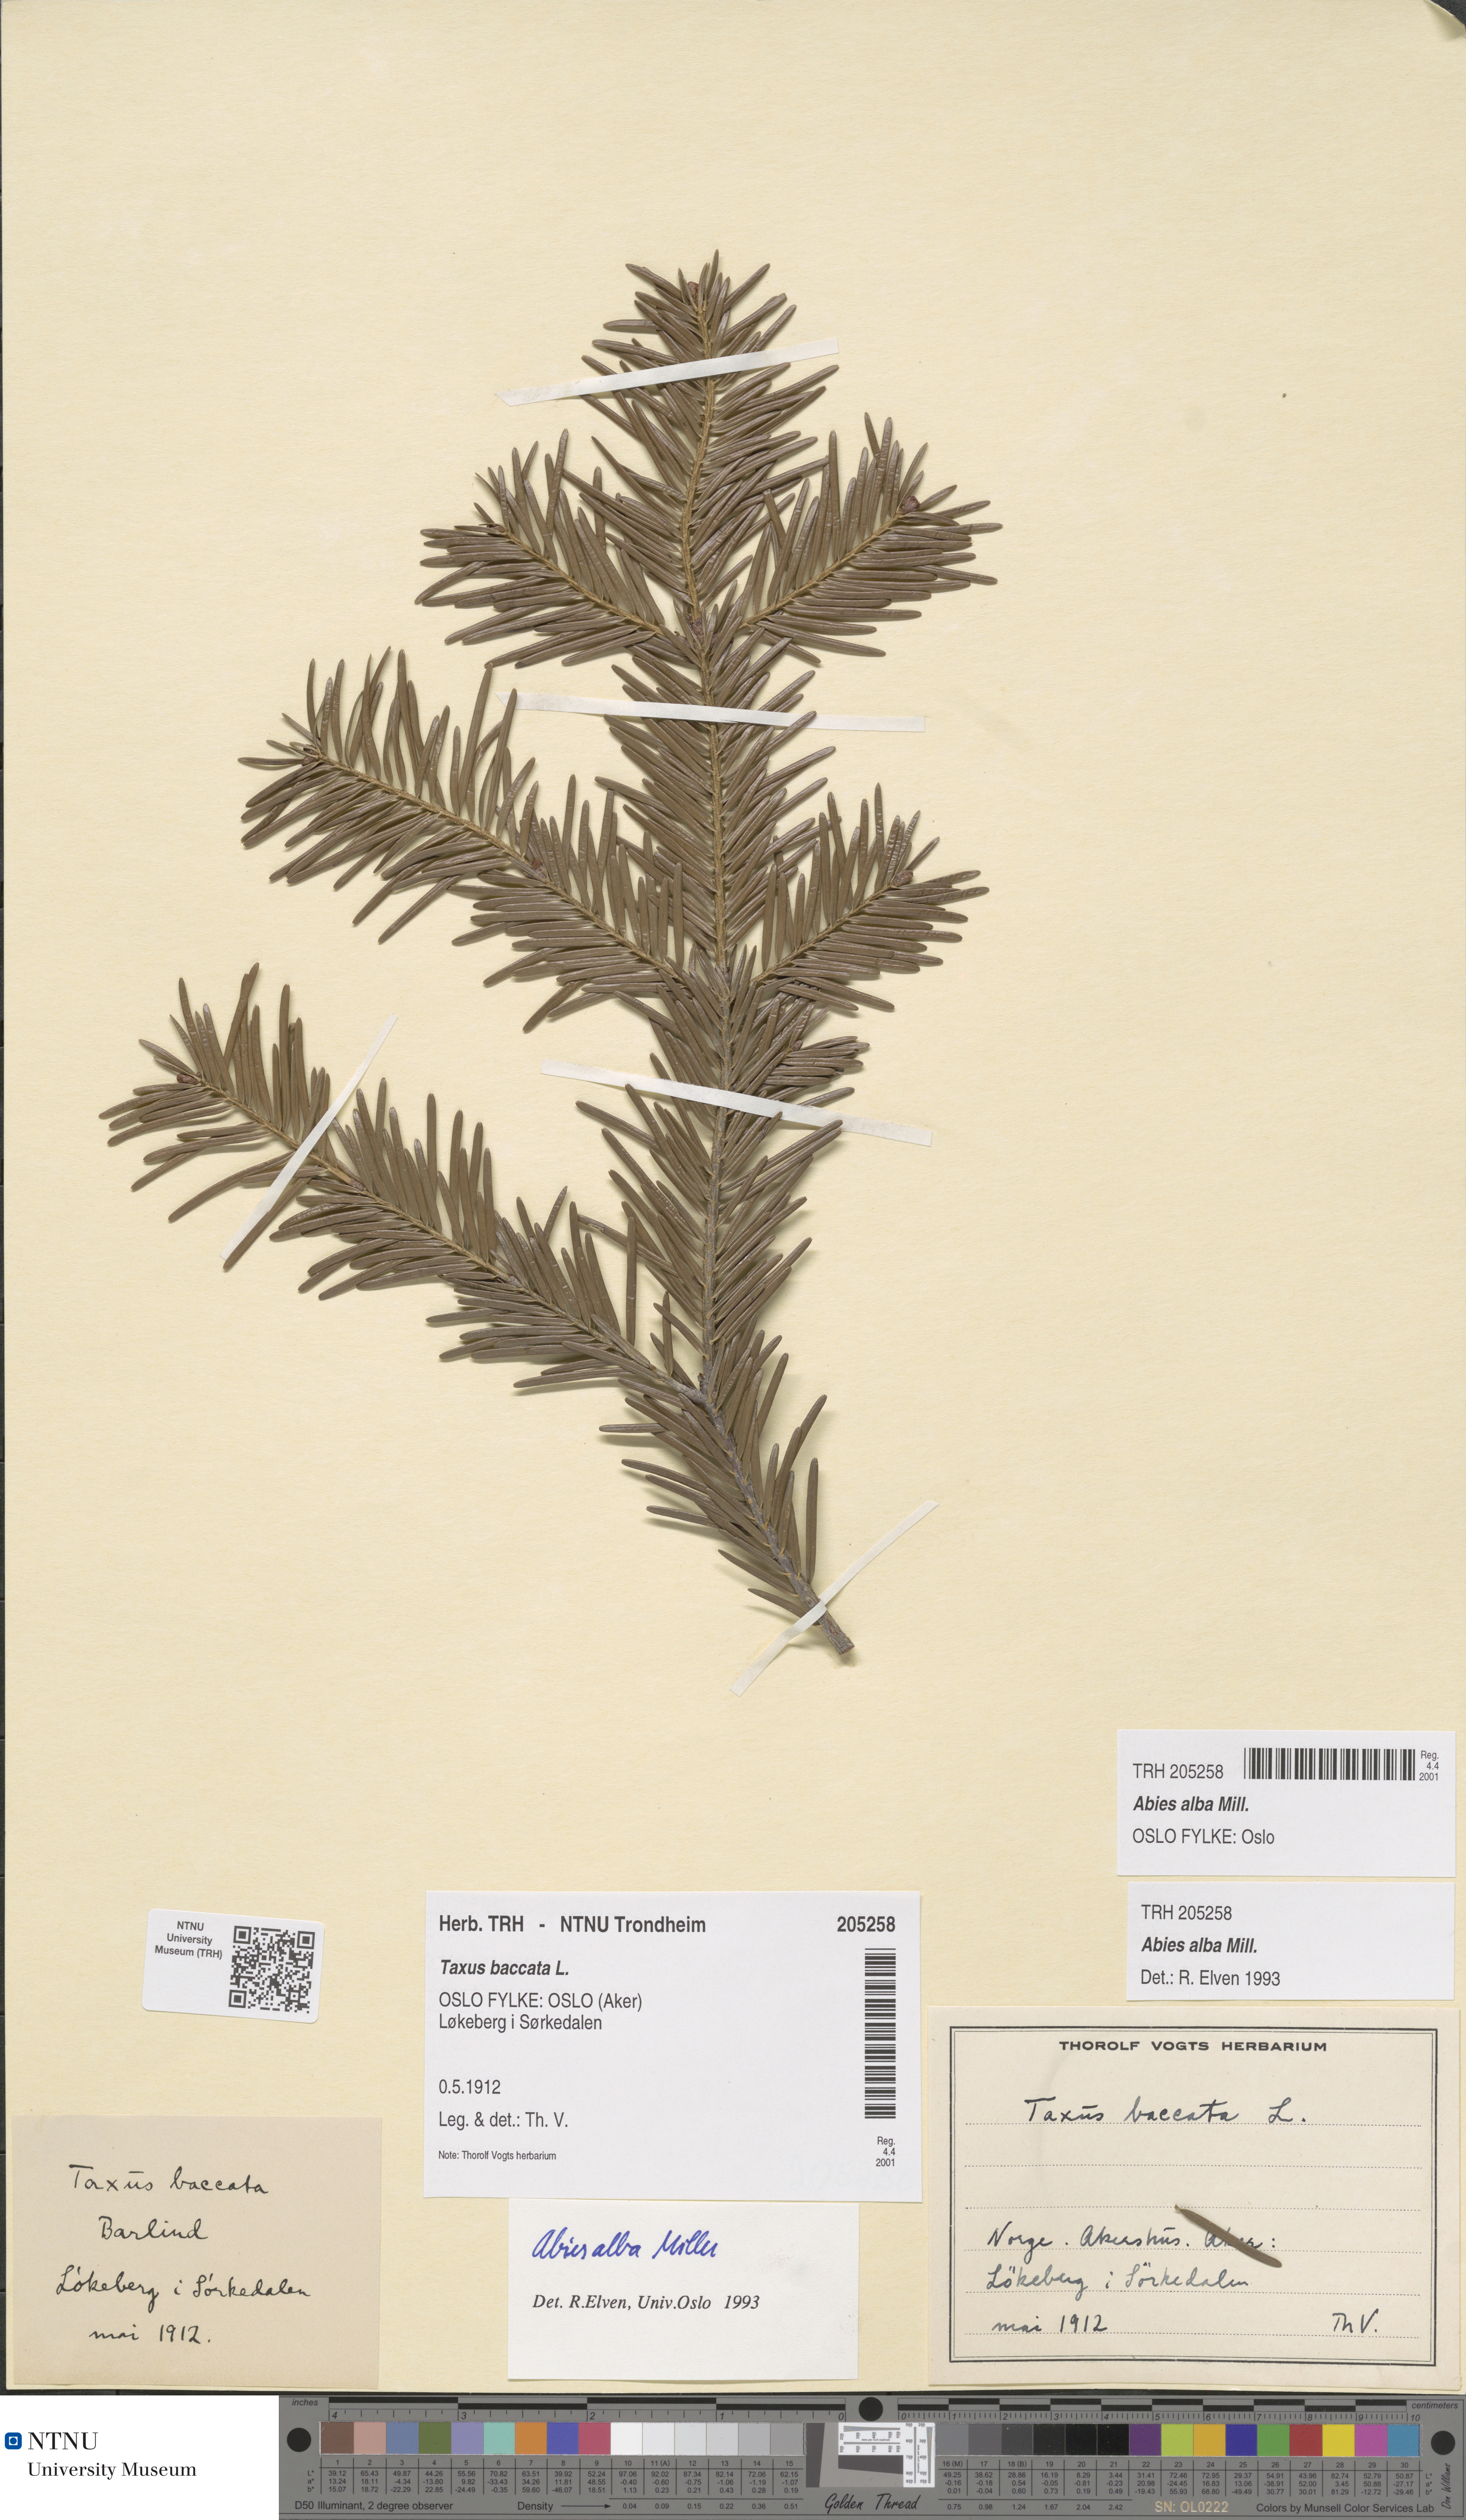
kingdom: Plantae
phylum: Tracheophyta
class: Pinopsida
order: Pinales
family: Pinaceae
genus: Abies
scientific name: Abies alba
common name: Silver fir
